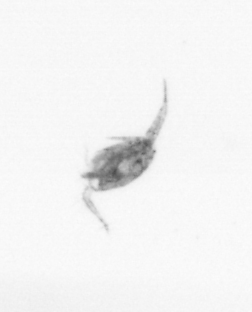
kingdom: Animalia
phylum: Arthropoda
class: Copepoda
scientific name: Copepoda
